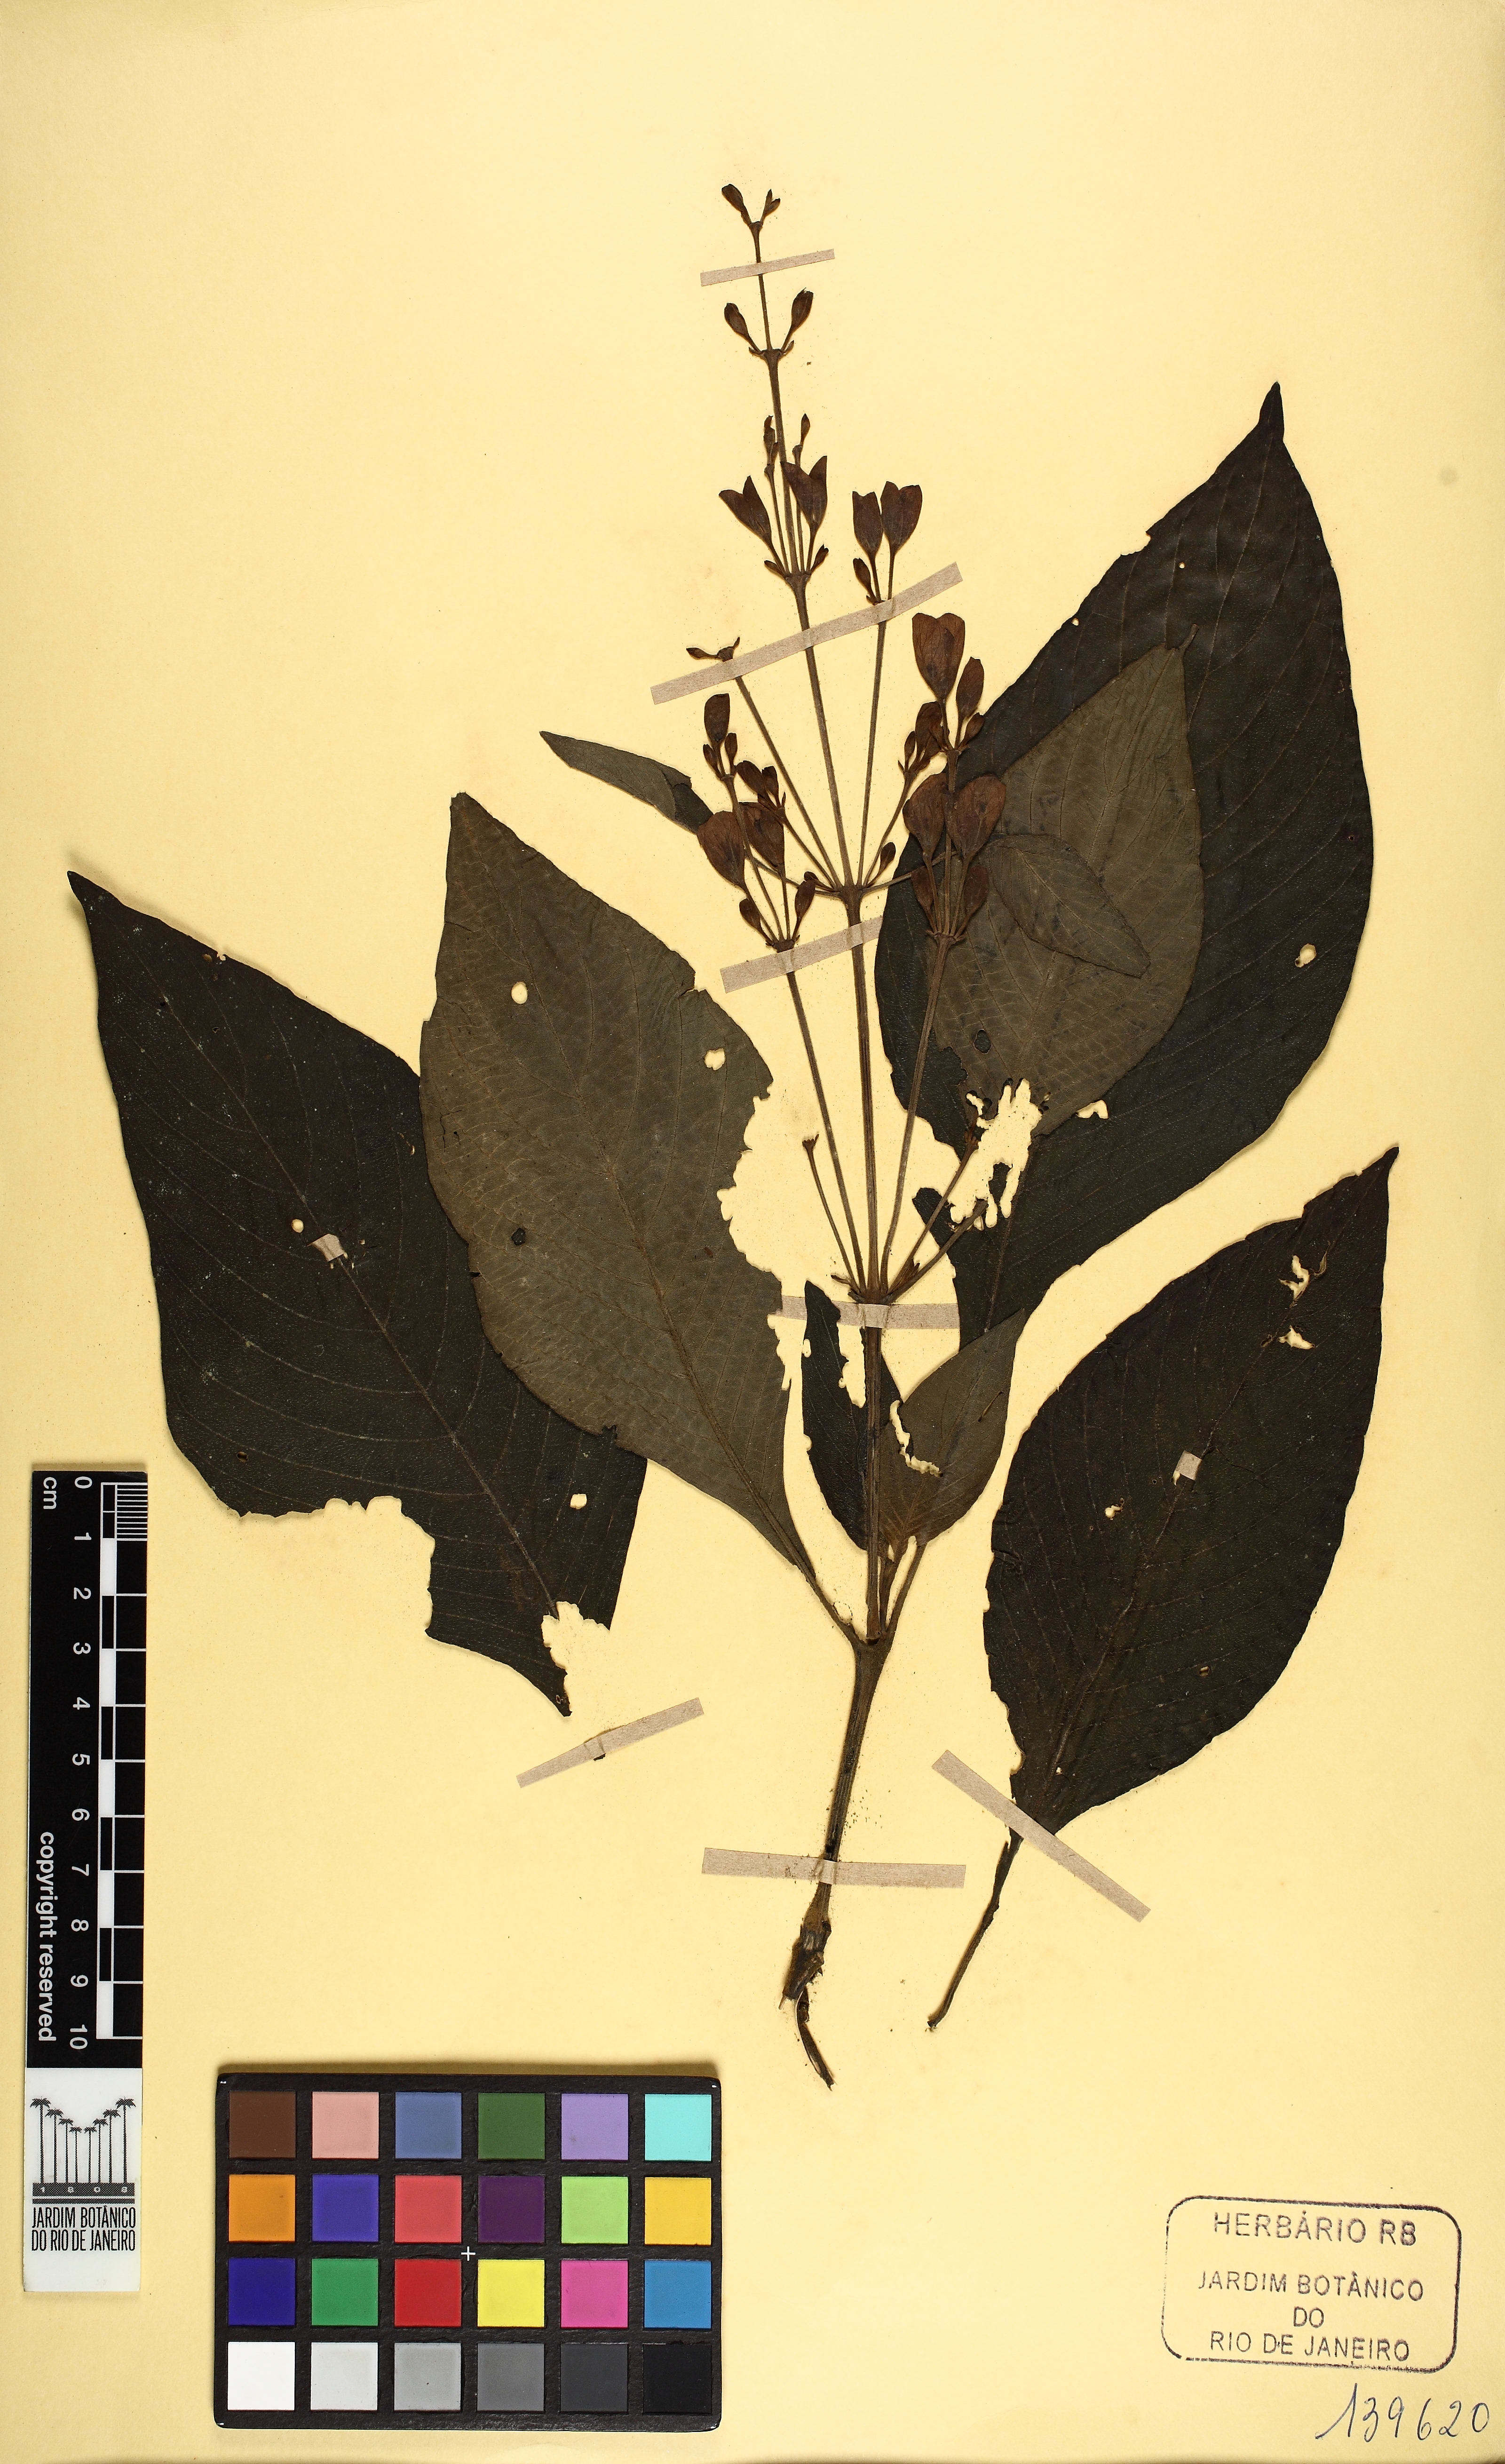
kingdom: Plantae
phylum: Tracheophyta
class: Magnoliopsida
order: Lamiales
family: Acanthaceae
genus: Justicia
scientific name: Justicia sellowiana
